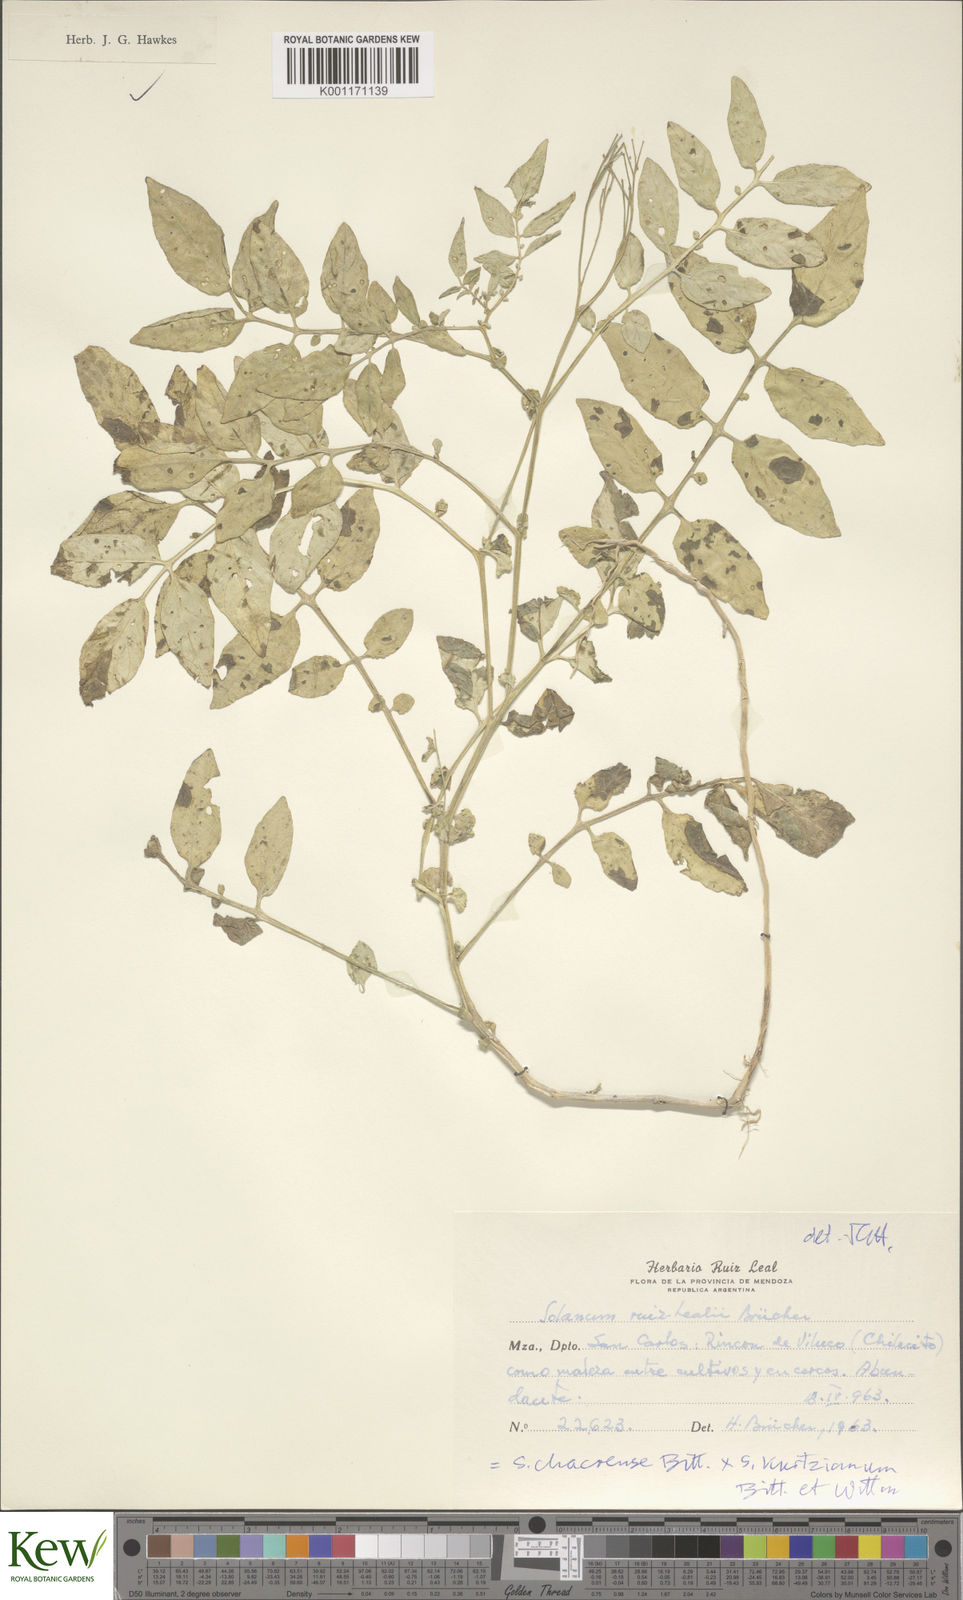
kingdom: Plantae
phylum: Tracheophyta
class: Magnoliopsida
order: Solanales
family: Solanaceae
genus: Solanum
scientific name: Solanum chacoense
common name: Chaco potato
